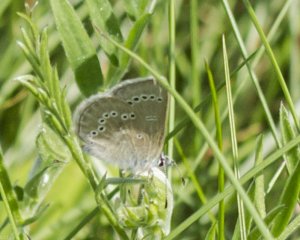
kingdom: Animalia
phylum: Arthropoda
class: Insecta
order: Lepidoptera
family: Lycaenidae
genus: Glaucopsyche
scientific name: Glaucopsyche lygdamus
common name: Silvery Blue
